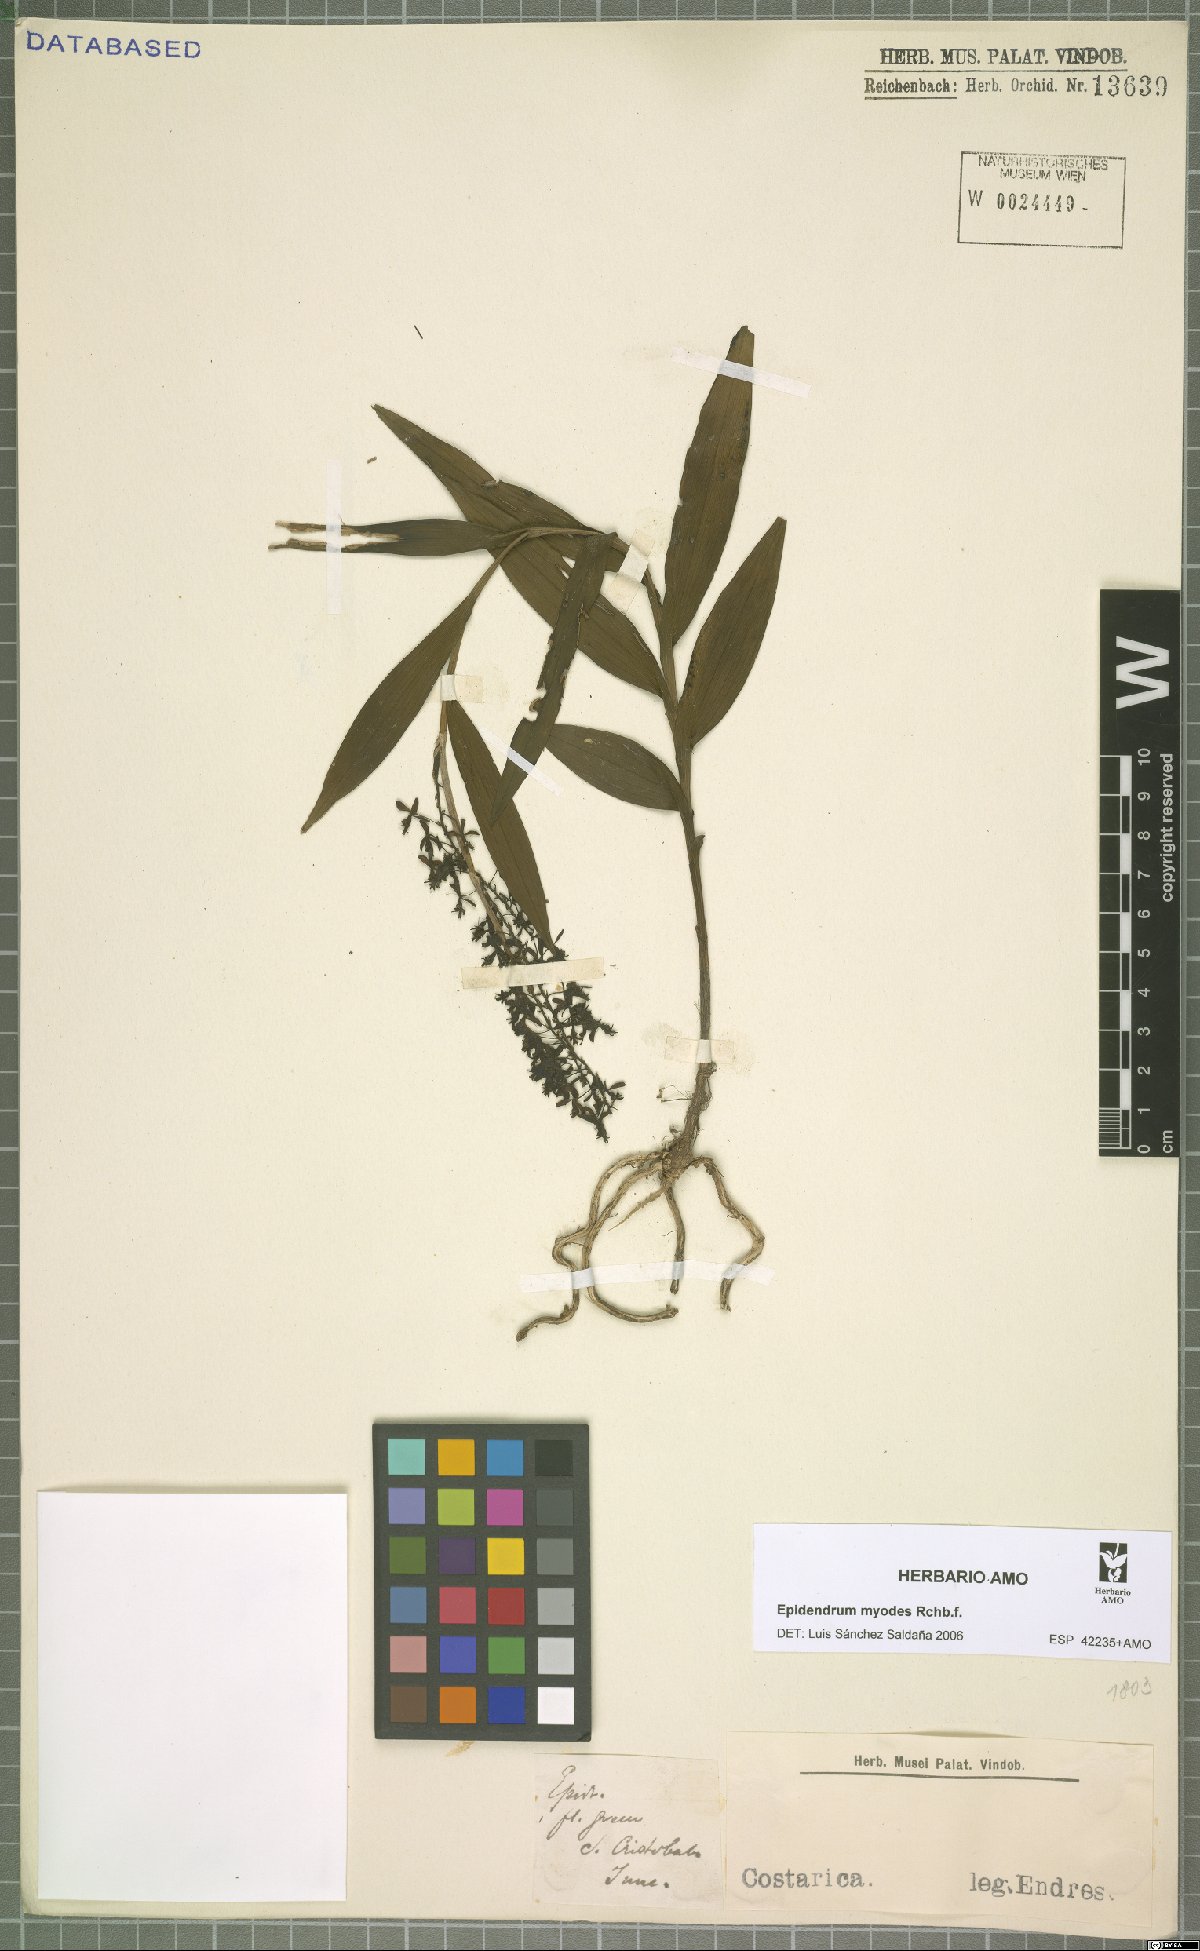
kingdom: Plantae
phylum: Tracheophyta
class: Liliopsida
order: Asparagales
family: Orchidaceae
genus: Epidendrum
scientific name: Epidendrum myodes
